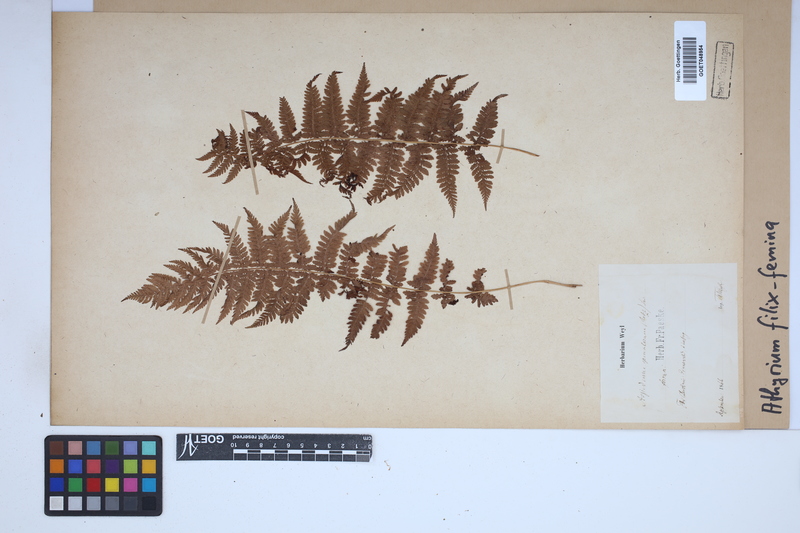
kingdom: Plantae
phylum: Tracheophyta
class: Polypodiopsida
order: Polypodiales
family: Athyriaceae
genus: Athyrium
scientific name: Athyrium filix-femina
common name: Lady fern
